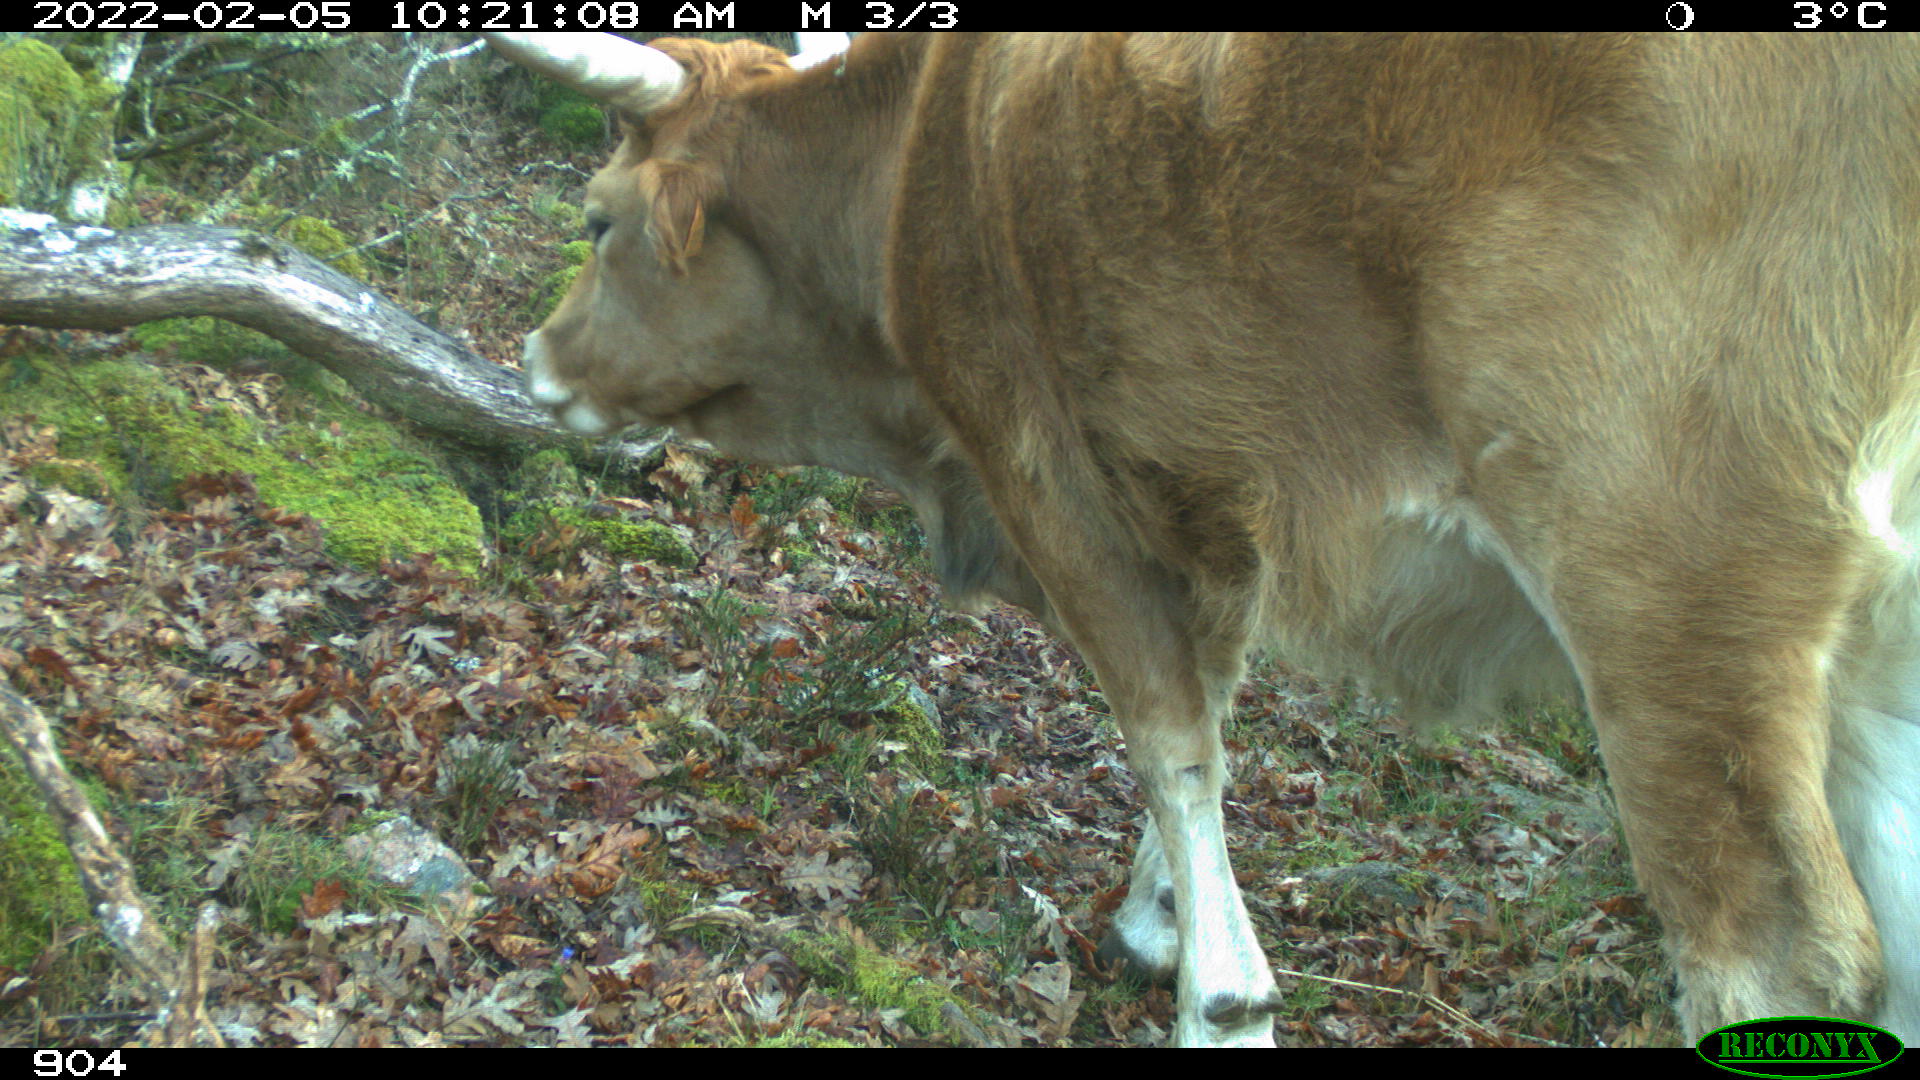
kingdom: Animalia
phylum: Chordata
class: Mammalia
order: Artiodactyla
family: Bovidae
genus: Bos
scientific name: Bos taurus
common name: Domesticated cattle
